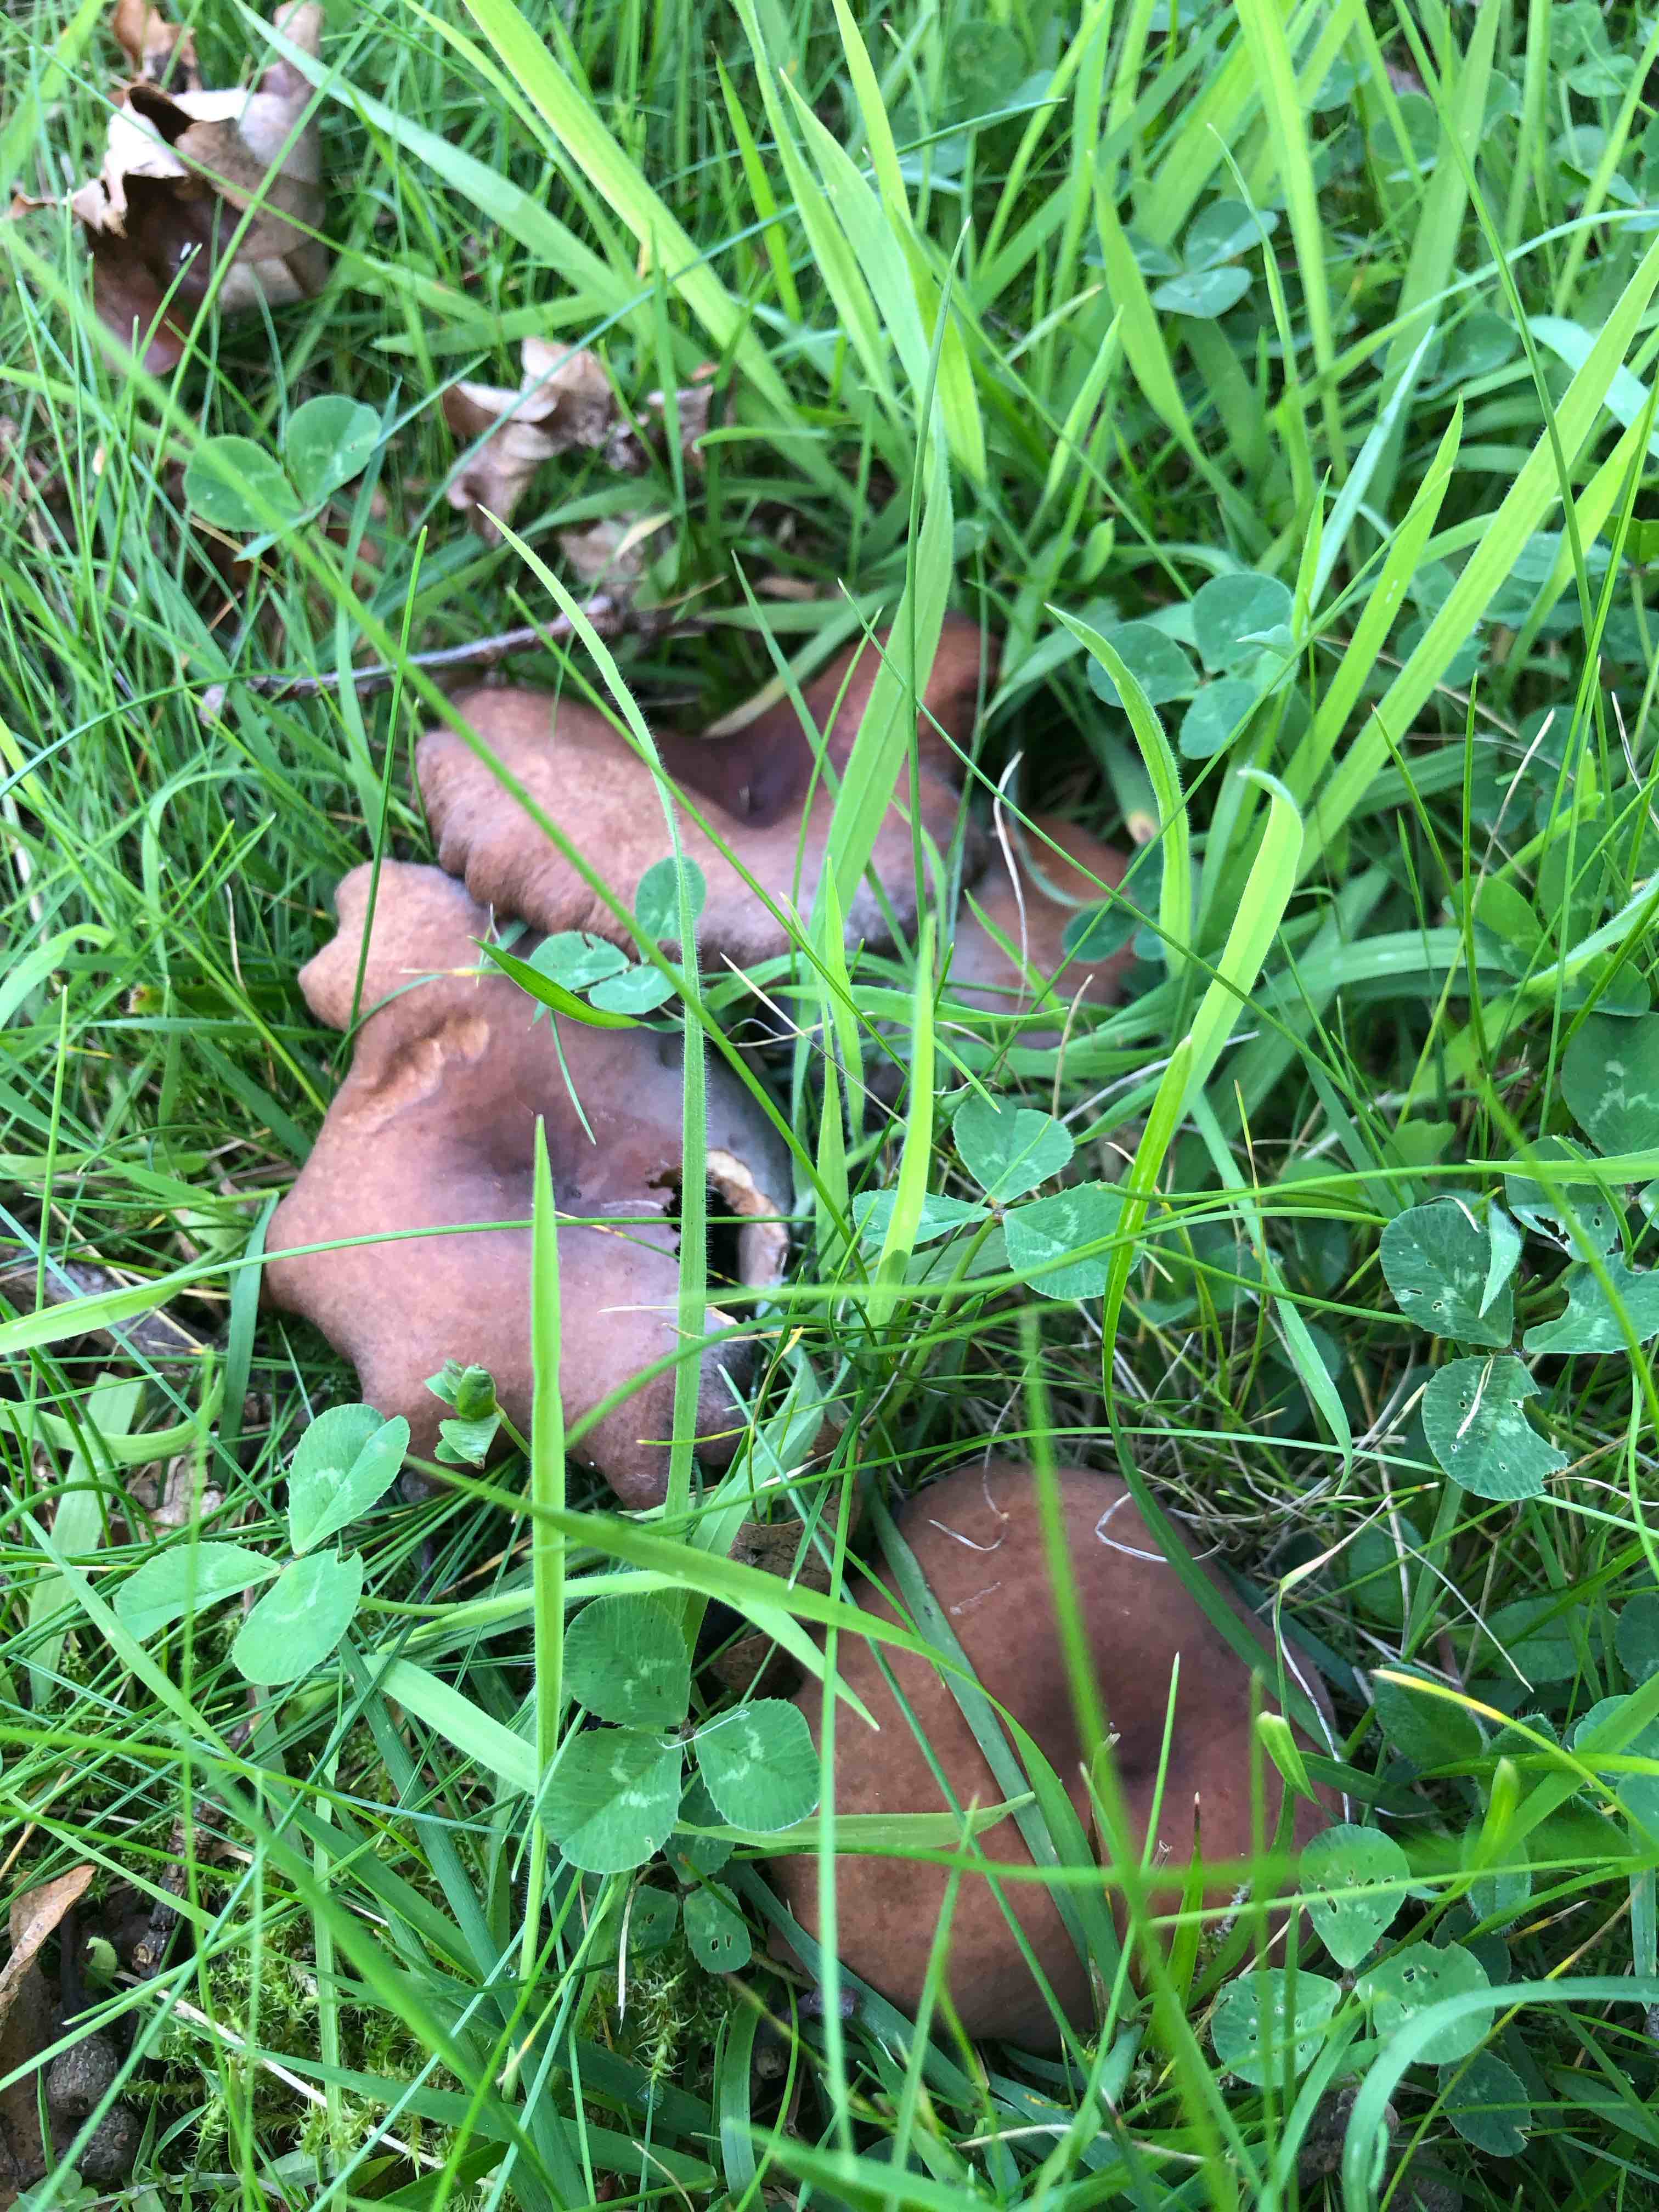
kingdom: Fungi
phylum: Basidiomycota
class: Agaricomycetes
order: Russulales
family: Russulaceae
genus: Lactarius
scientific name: Lactarius serifluus
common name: tæge-mælkehat
